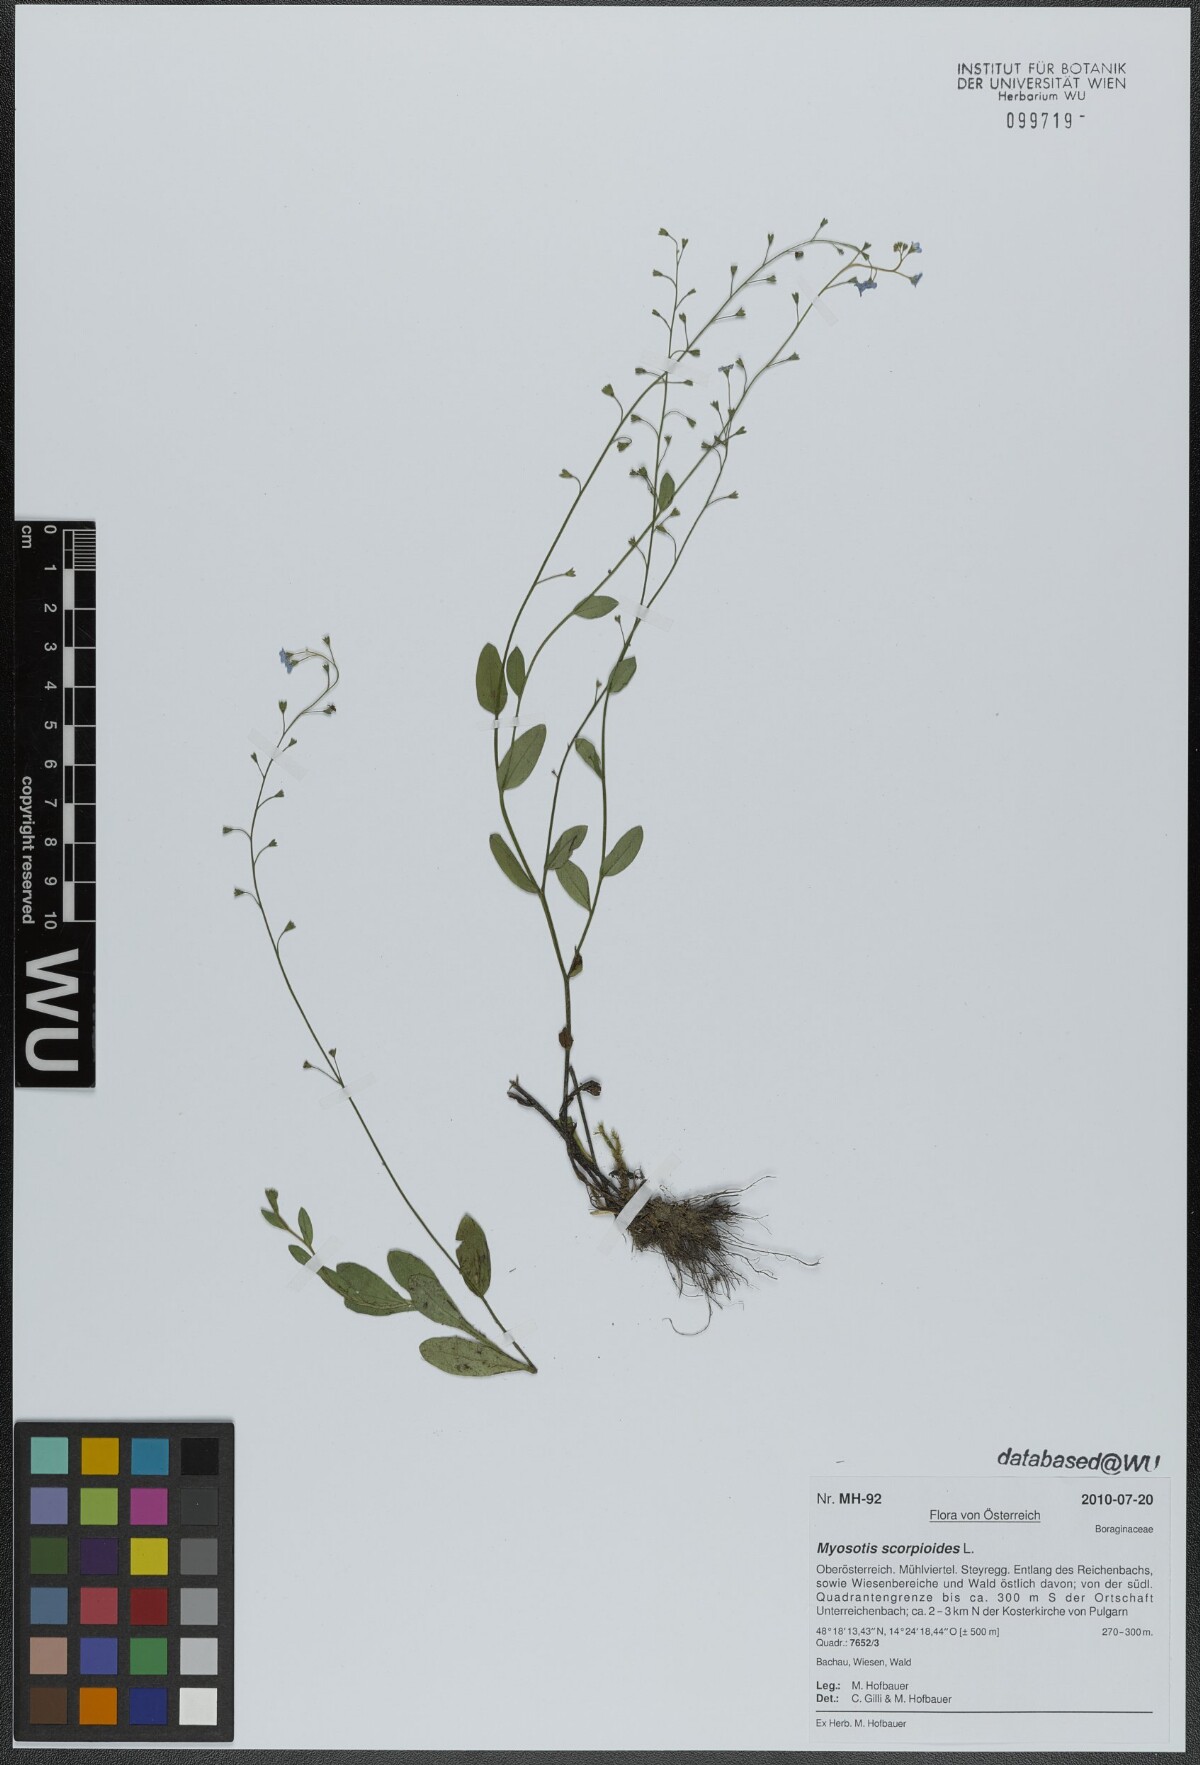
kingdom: Plantae
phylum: Tracheophyta
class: Magnoliopsida
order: Boraginales
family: Boraginaceae
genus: Myosotis
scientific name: Myosotis scorpioides
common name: Water forget-me-not
